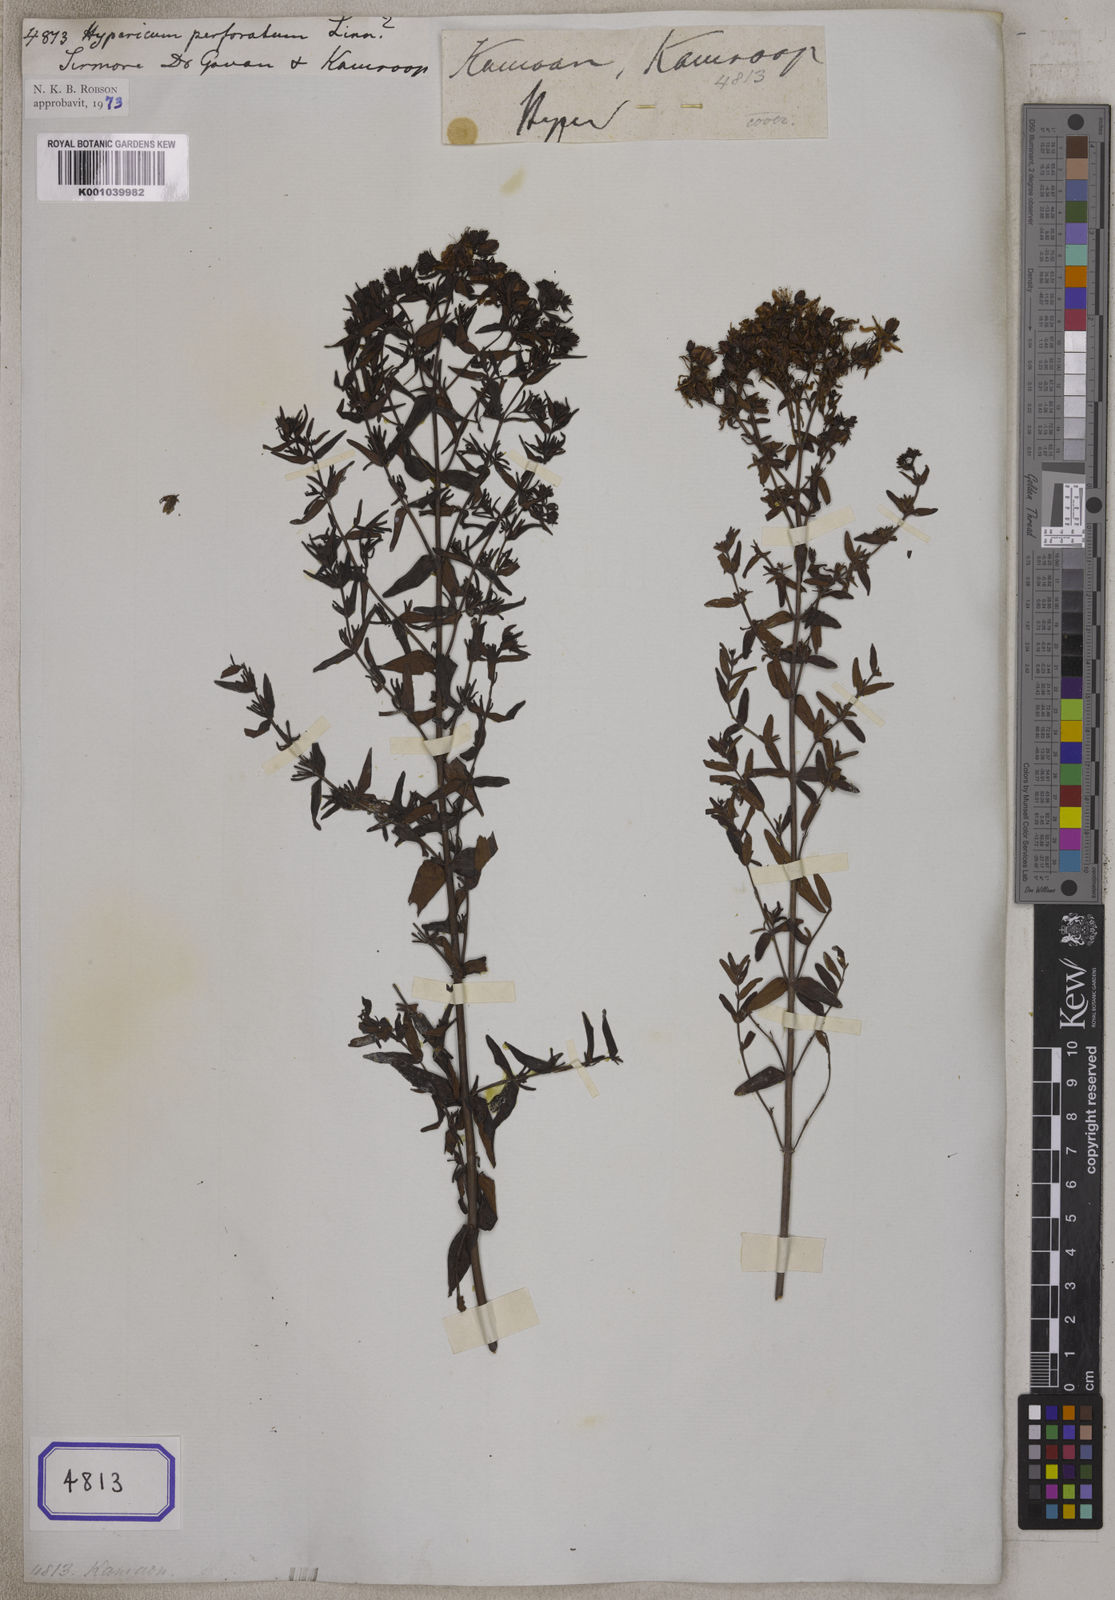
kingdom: Plantae
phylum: Tracheophyta
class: Magnoliopsida
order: Malpighiales
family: Hypericaceae
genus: Hypericum
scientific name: Hypericum perforatum
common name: Common st. johnswort
